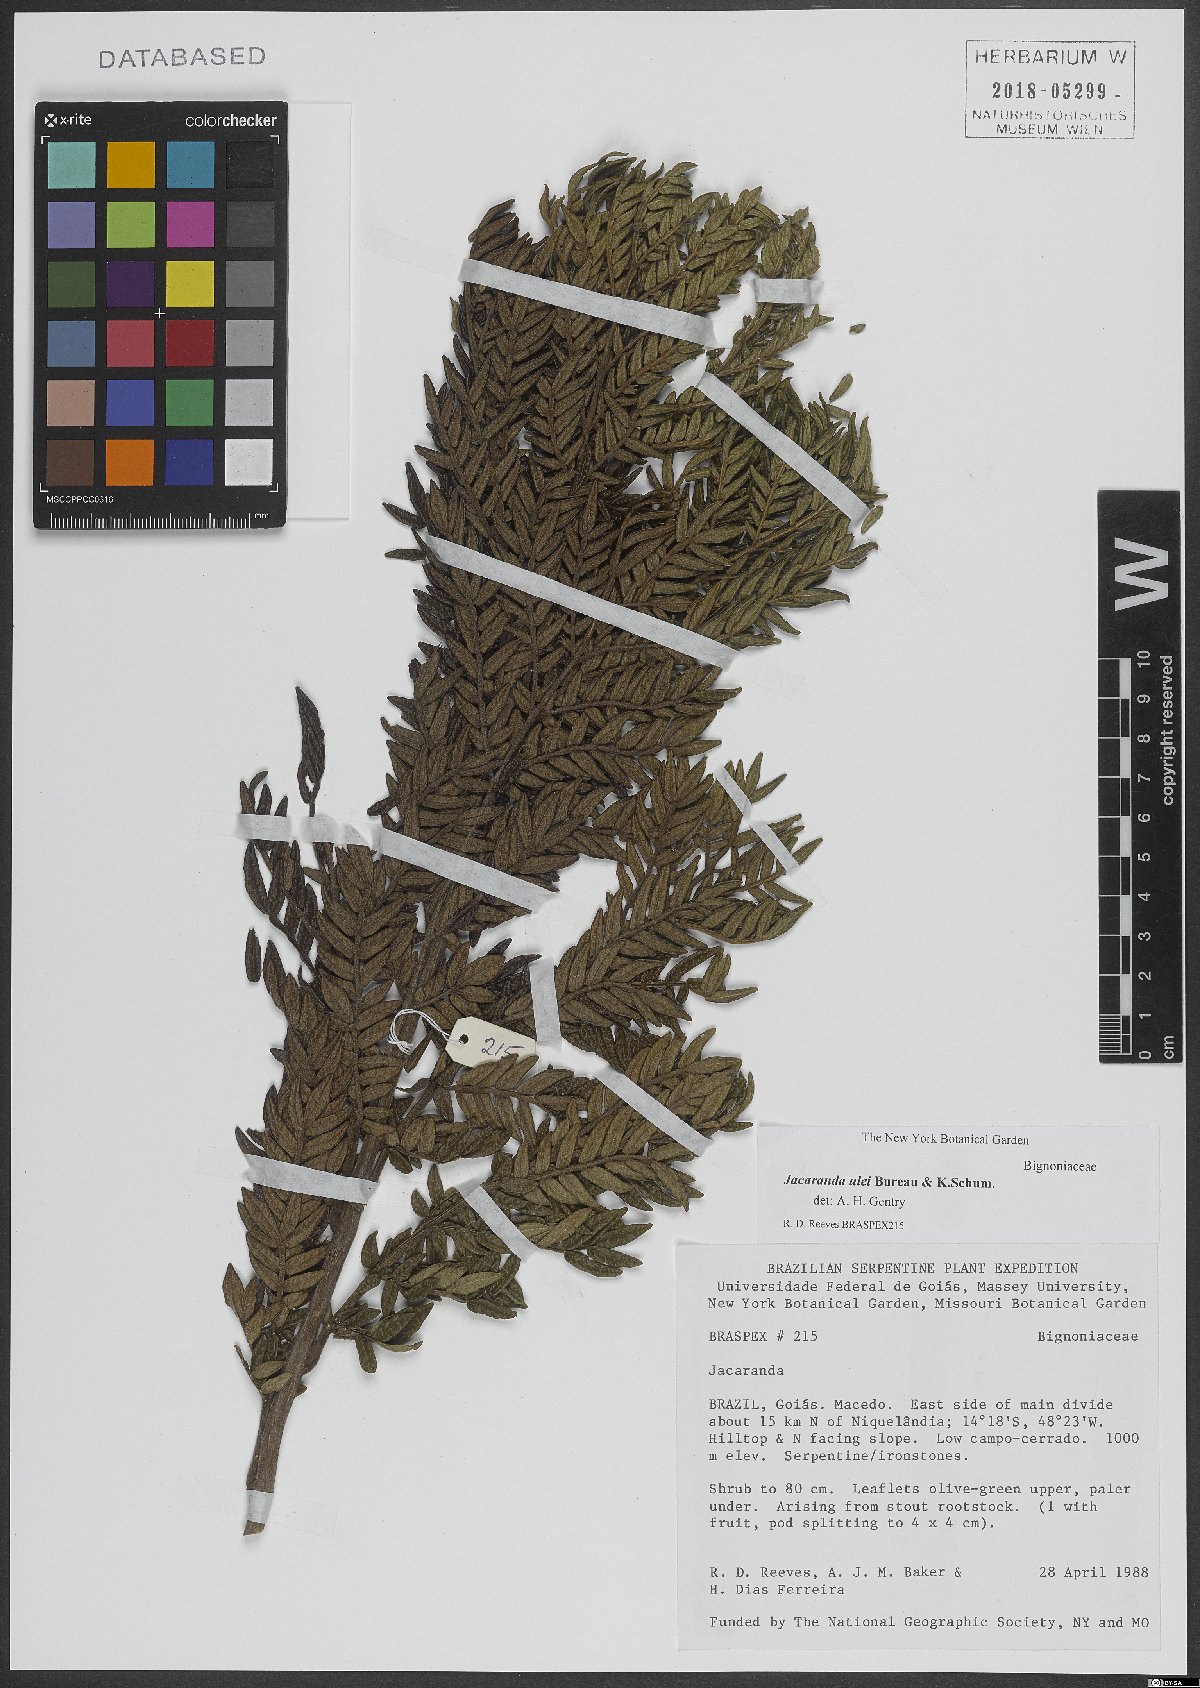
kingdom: Plantae
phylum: Tracheophyta
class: Magnoliopsida
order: Lamiales
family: Bignoniaceae
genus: Jacaranda
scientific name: Jacaranda ulei
